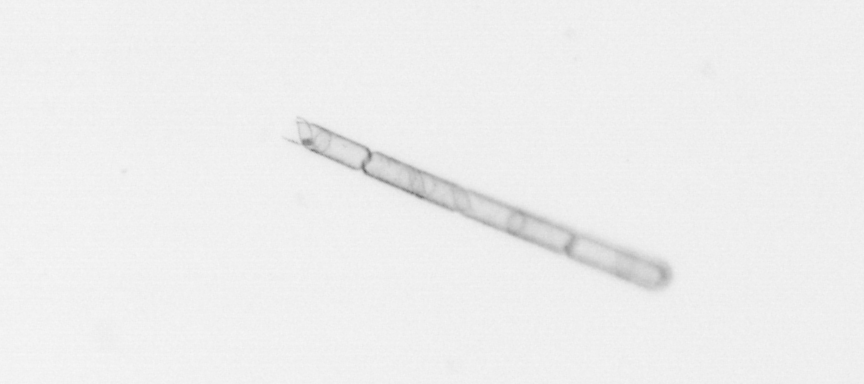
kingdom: Chromista
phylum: Ochrophyta
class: Bacillariophyceae
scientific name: Bacillariophyceae
